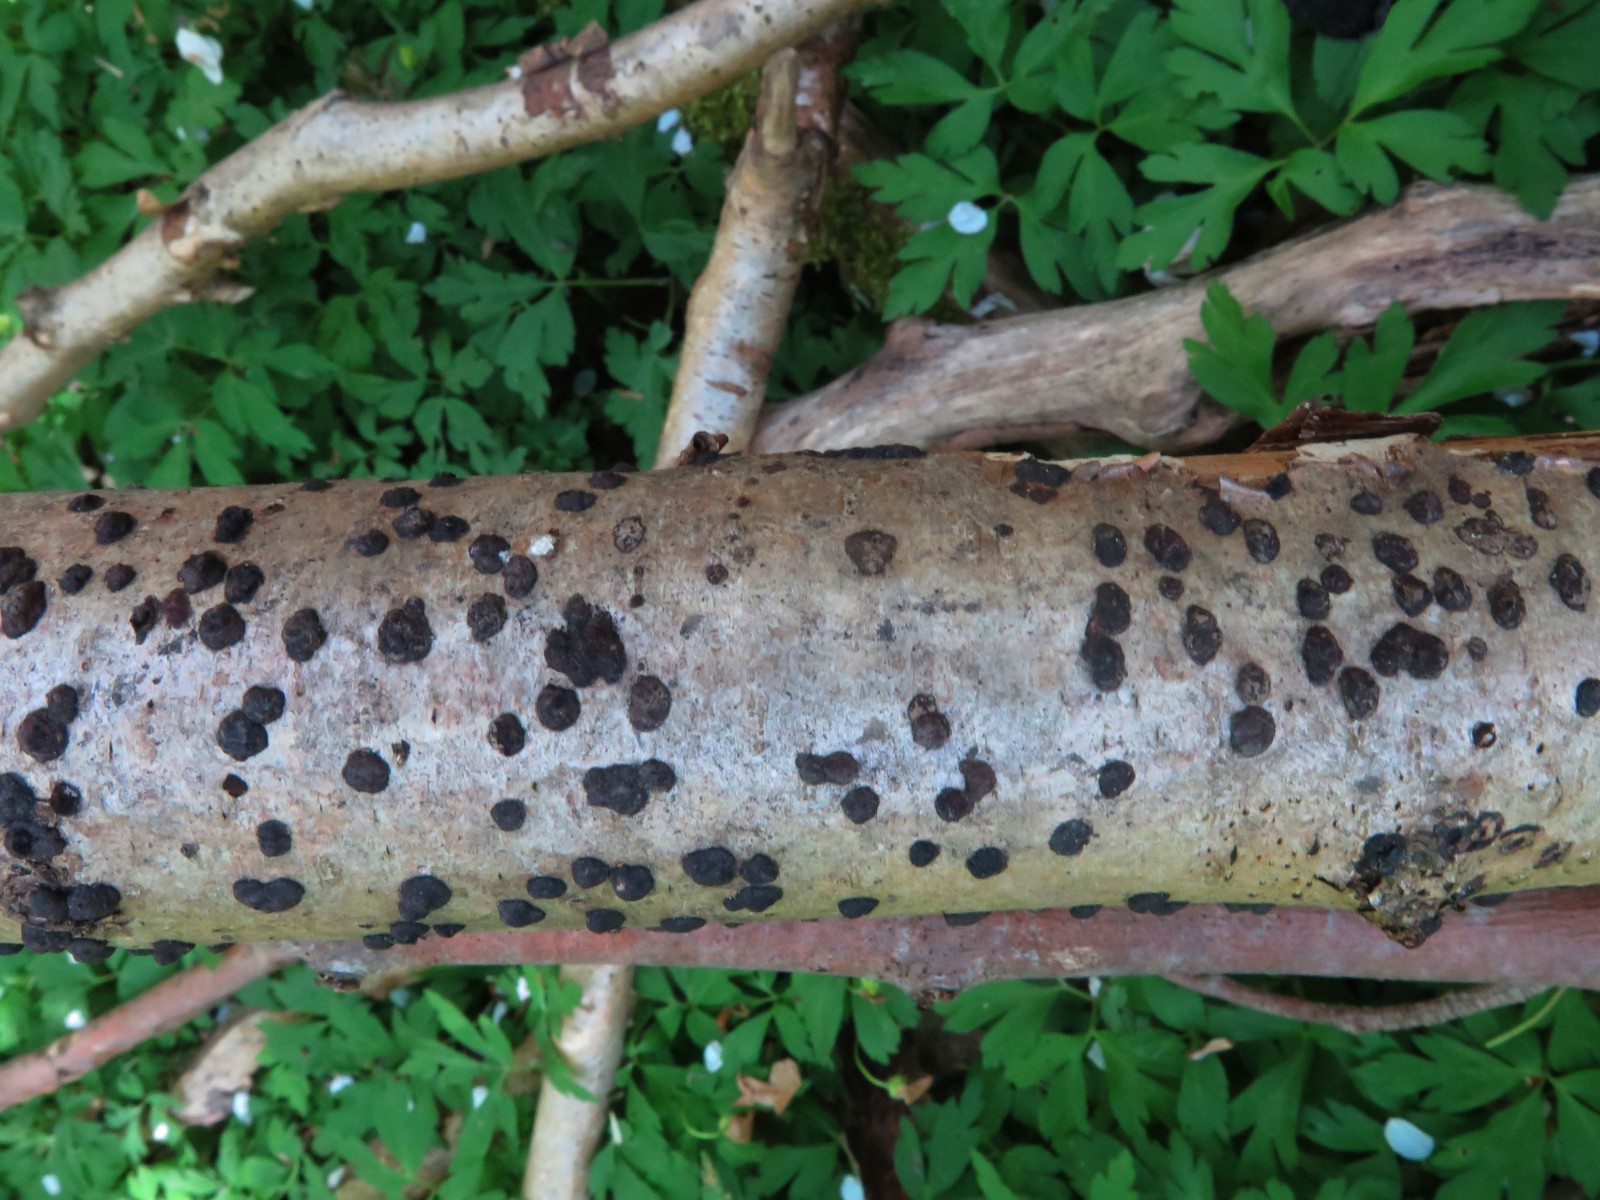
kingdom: Fungi
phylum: Ascomycota
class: Sordariomycetes
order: Xylariales
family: Hypoxylaceae
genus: Hypoxylon
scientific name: Hypoxylon fuscum
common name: kegleformet kulbær
